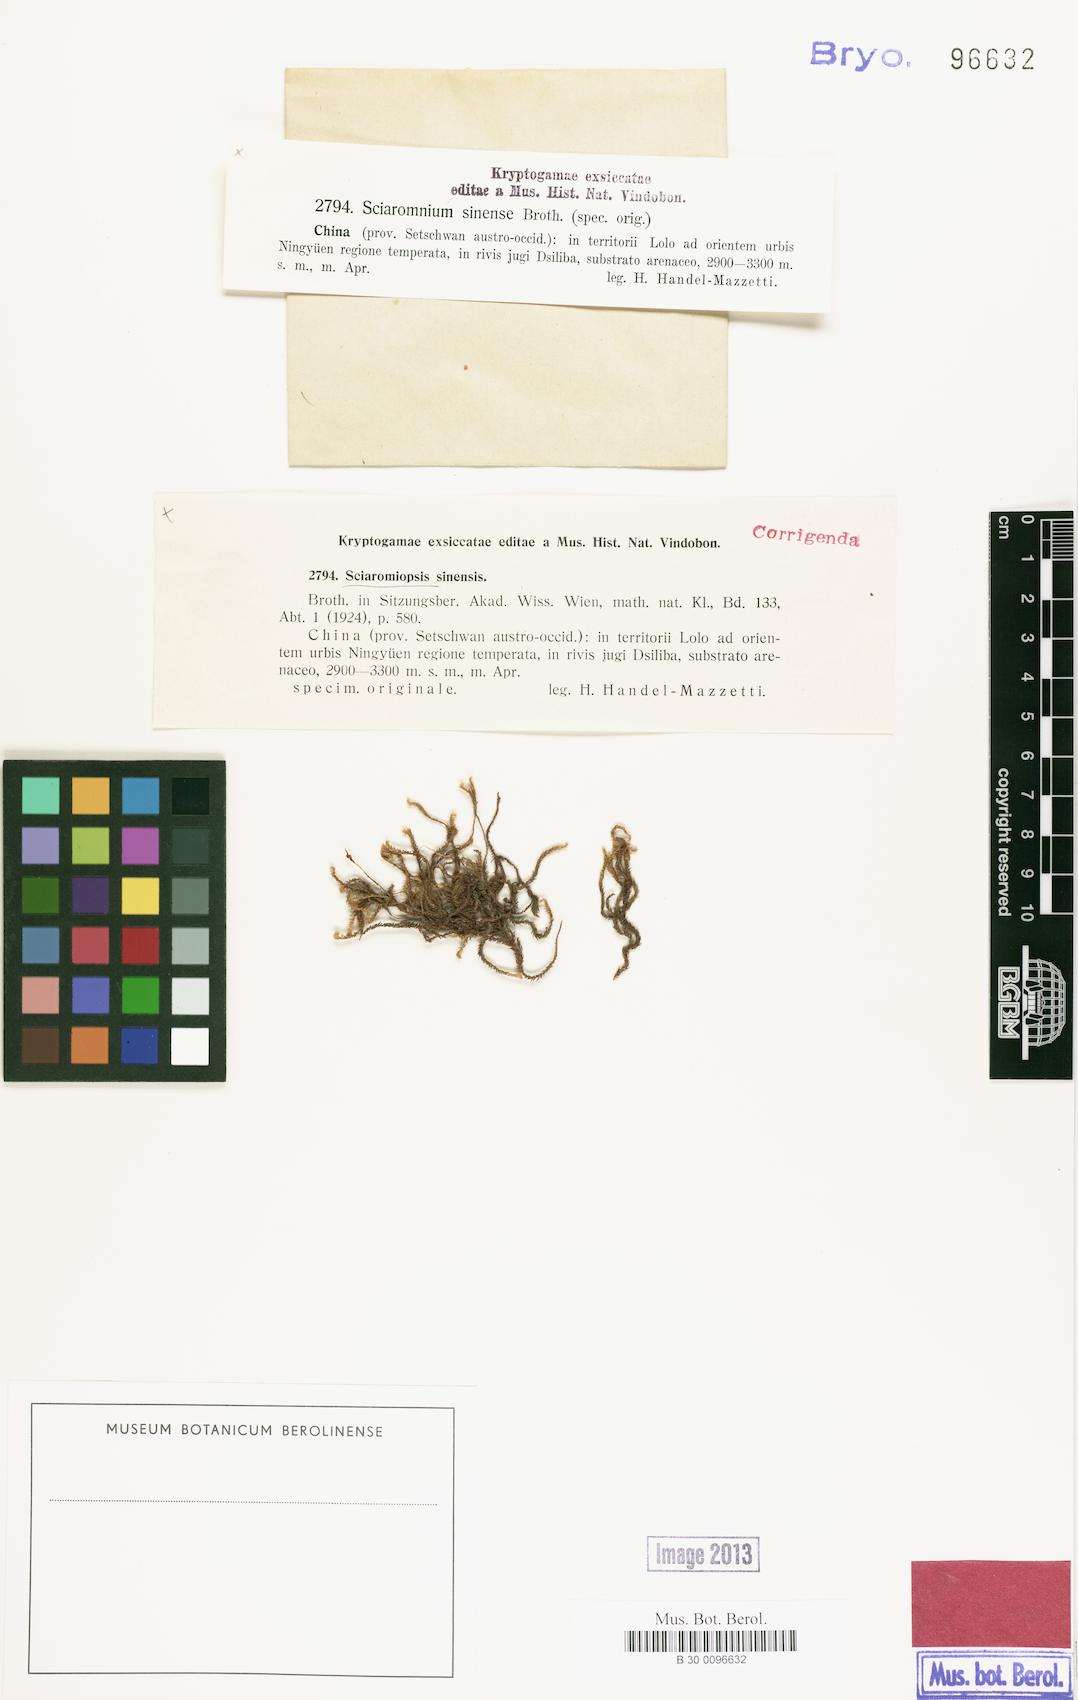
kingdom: Plantae
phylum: Bryophyta
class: Bryopsida
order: Hypnales
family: Brachytheciaceae
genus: Brachythecium
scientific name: Brachythecium sinense
